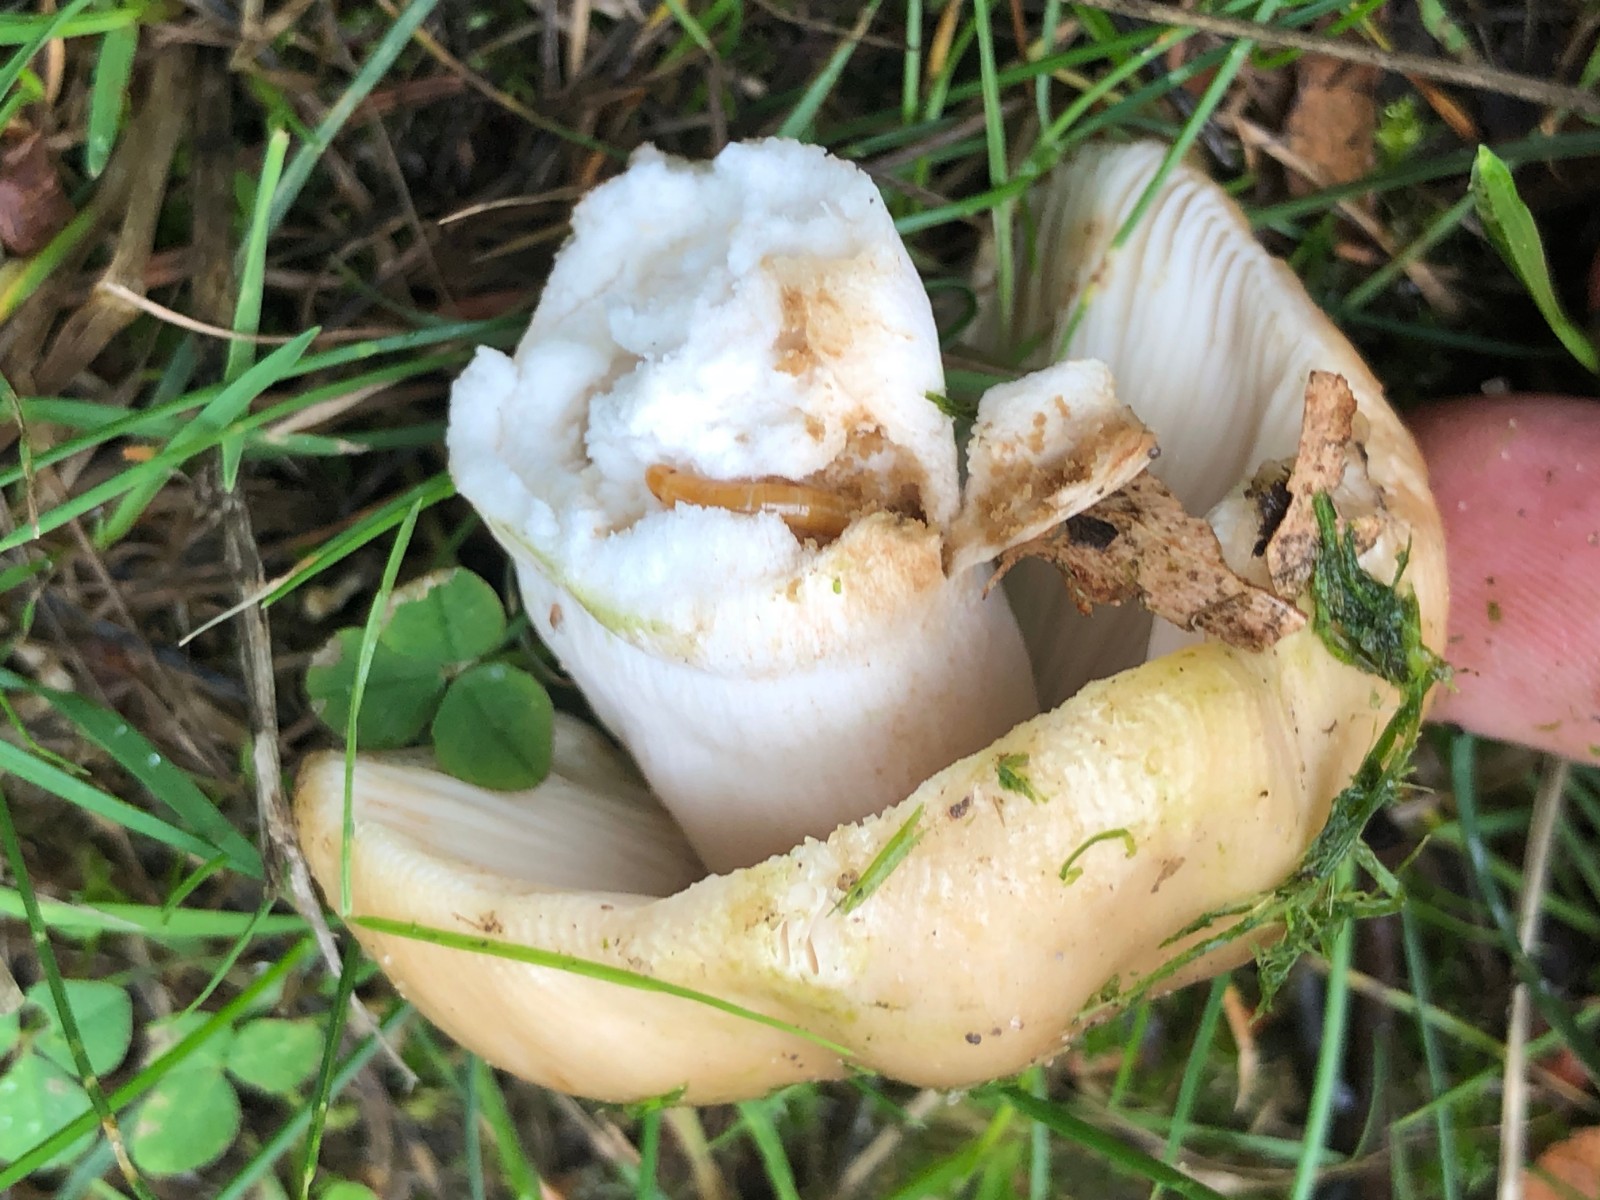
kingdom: Fungi
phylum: Basidiomycota
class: Agaricomycetes
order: Russulales
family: Russulaceae
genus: Russula
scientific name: Russula recondita
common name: mild kam-skørhat
